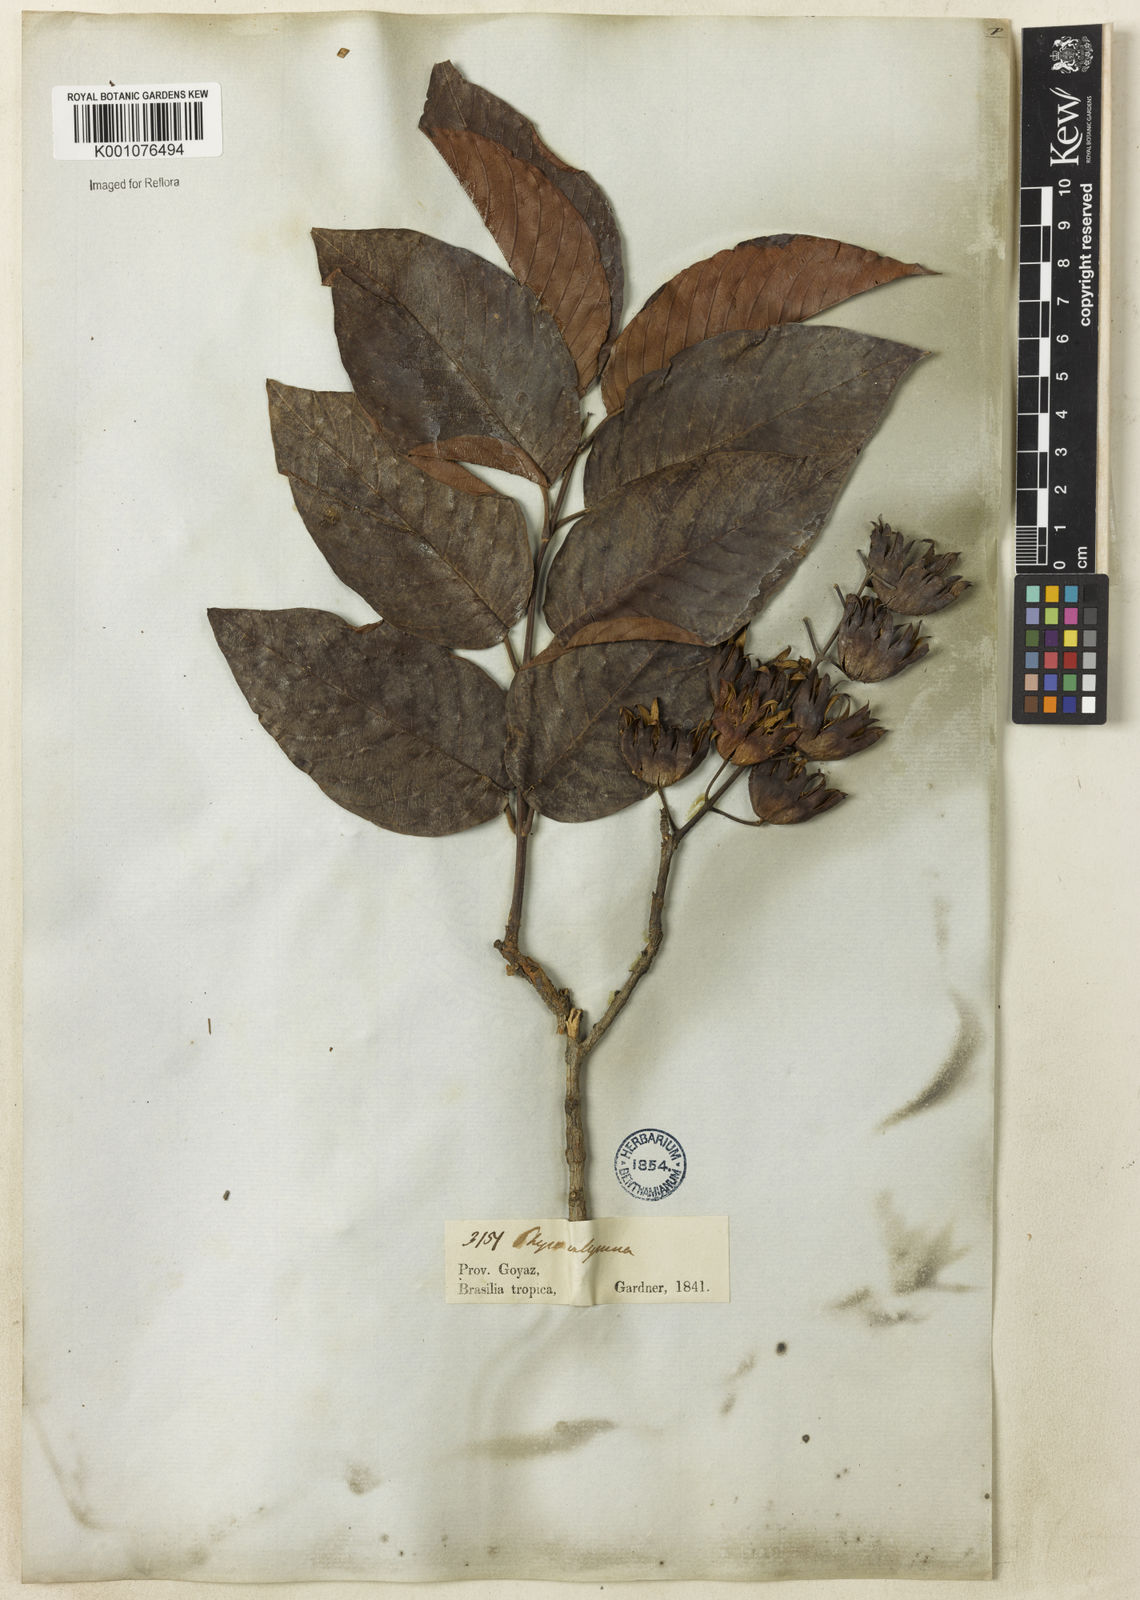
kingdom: Plantae
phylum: Tracheophyta
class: Magnoliopsida
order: Myrtales
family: Lythraceae
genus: Physocalymma
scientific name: Physocalymma scaberrimum
